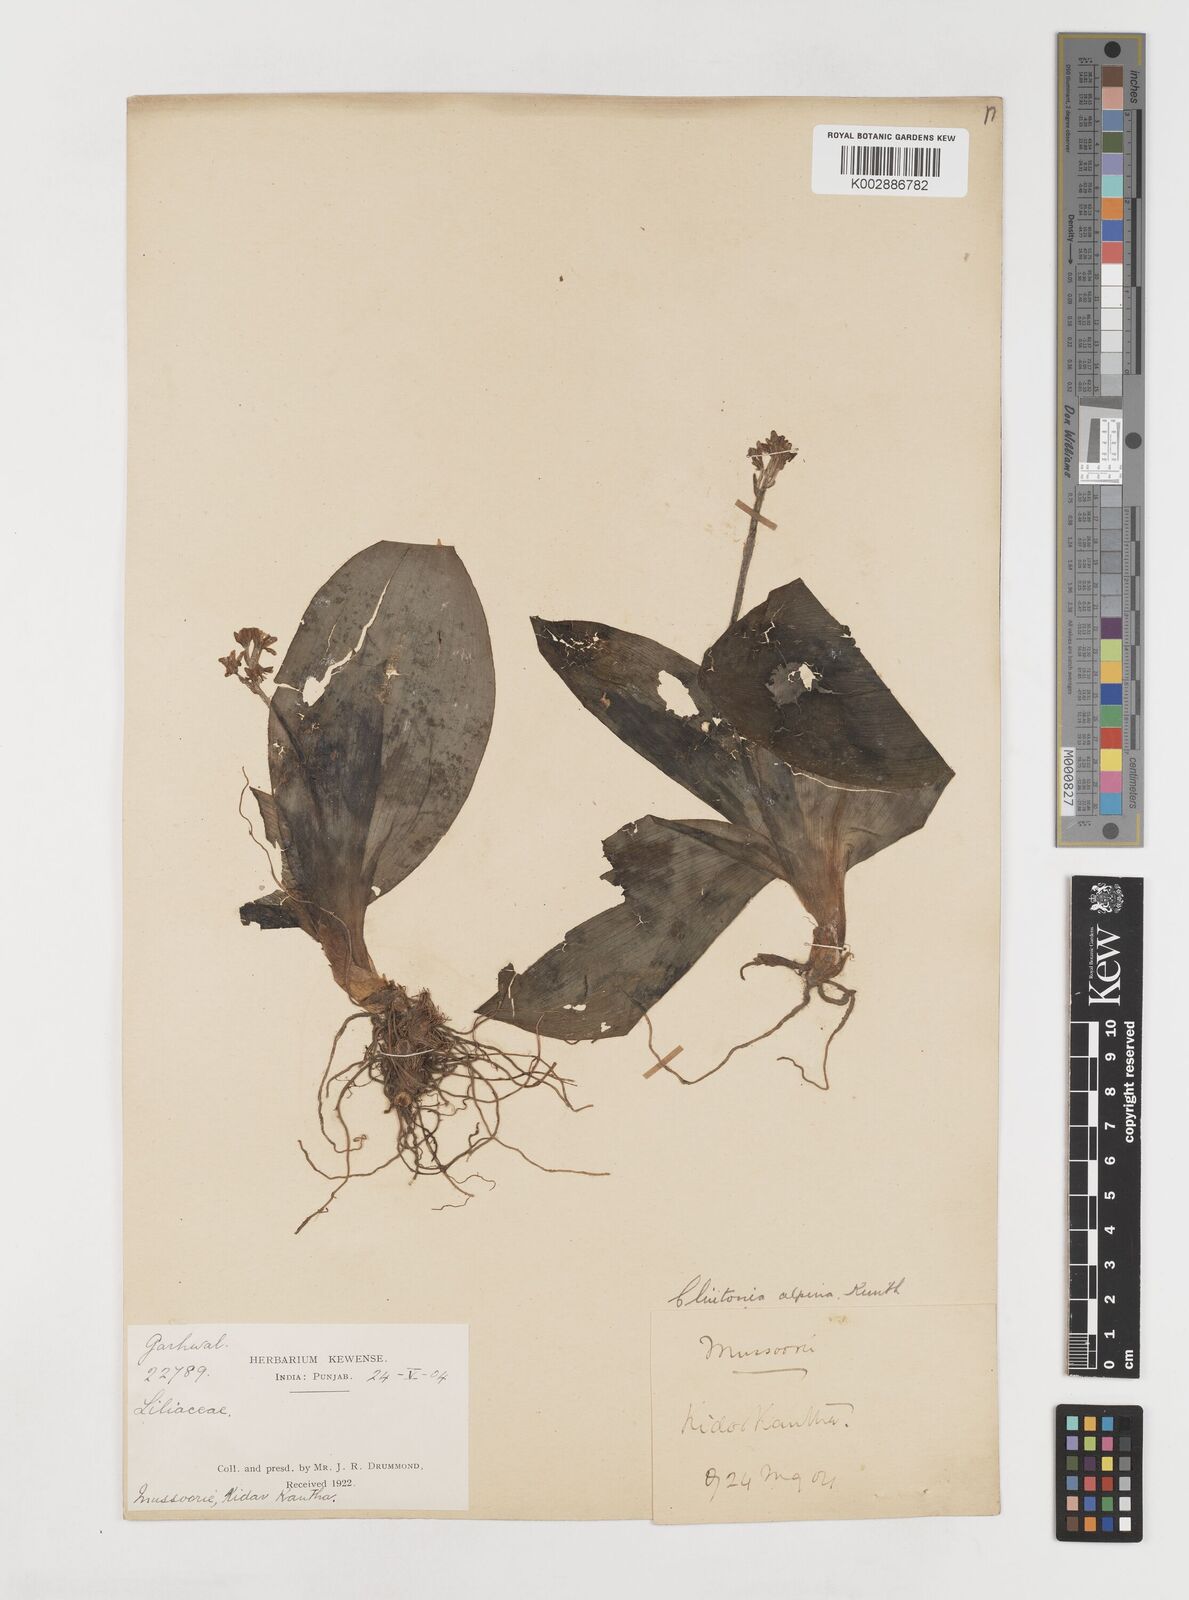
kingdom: Plantae
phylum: Tracheophyta
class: Liliopsida
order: Liliales
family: Liliaceae
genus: Clintonia
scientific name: Clintonia udensis
